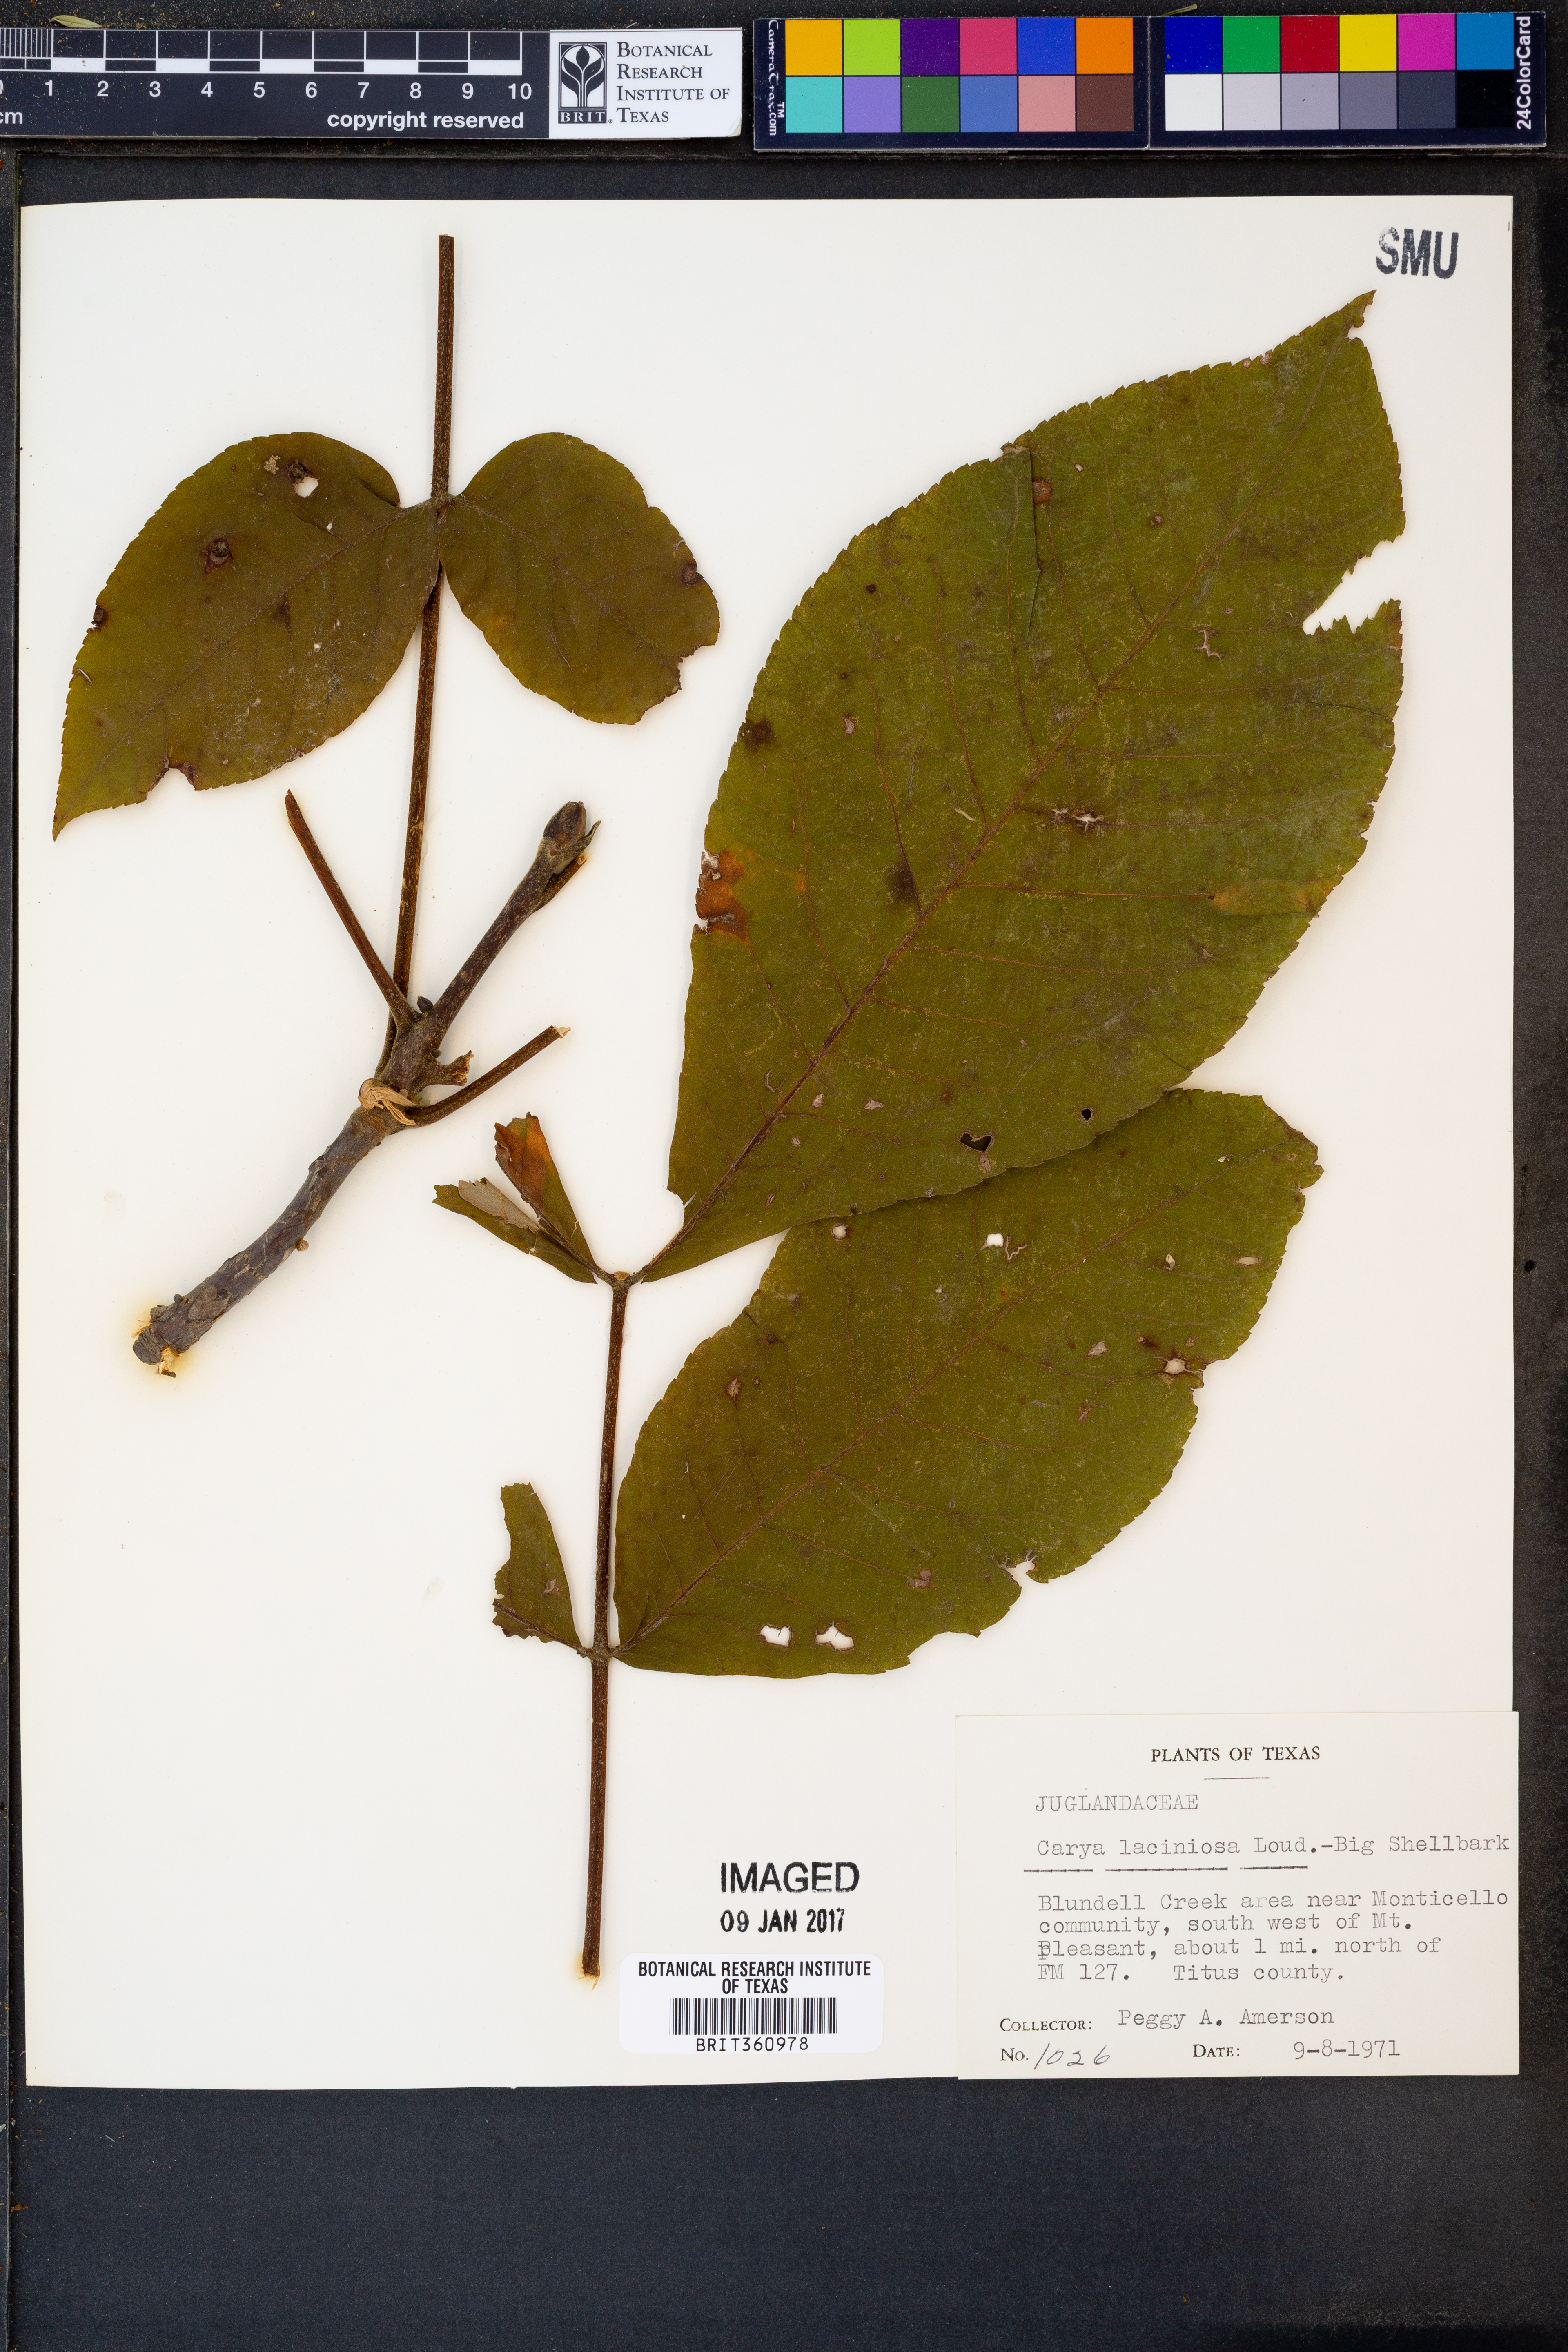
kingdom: Plantae
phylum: Tracheophyta
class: Magnoliopsida
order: Fagales
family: Juglandaceae
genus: Carya
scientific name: Carya laciniosa
